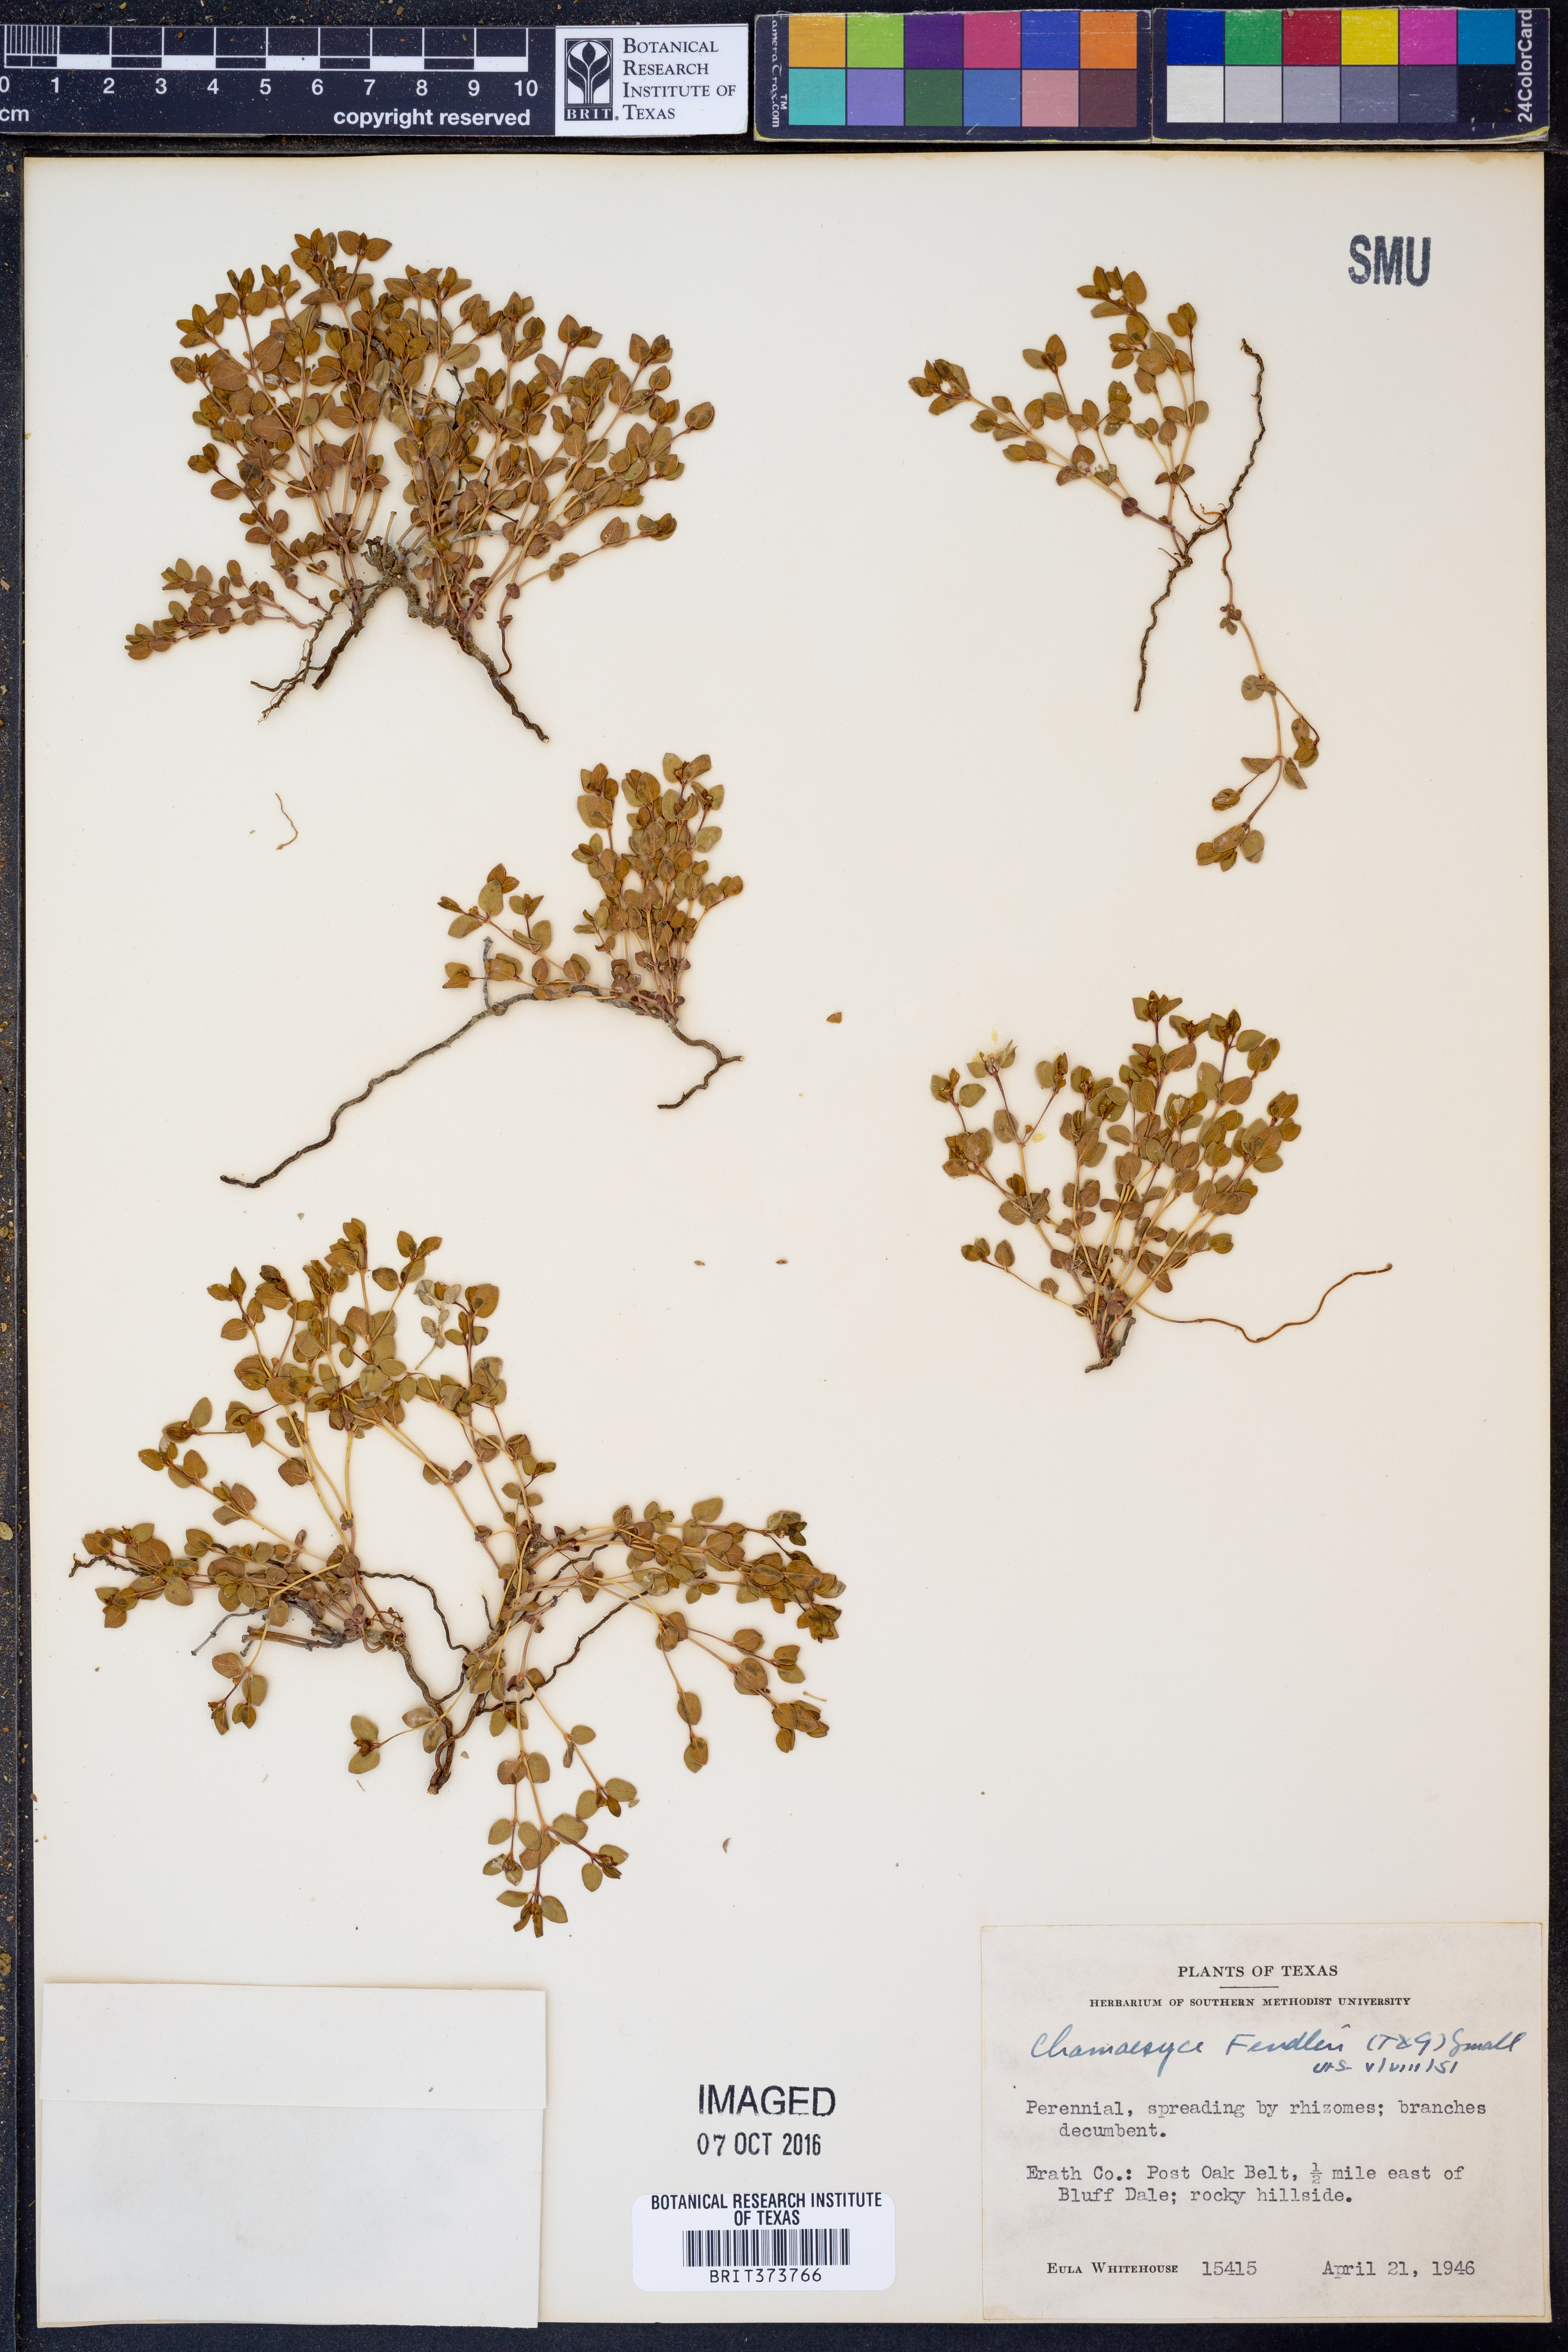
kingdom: Plantae
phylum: Tracheophyta
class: Magnoliopsida
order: Malpighiales
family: Euphorbiaceae
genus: Euphorbia
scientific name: Euphorbia fendleri
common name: Fendler's euphorbia
